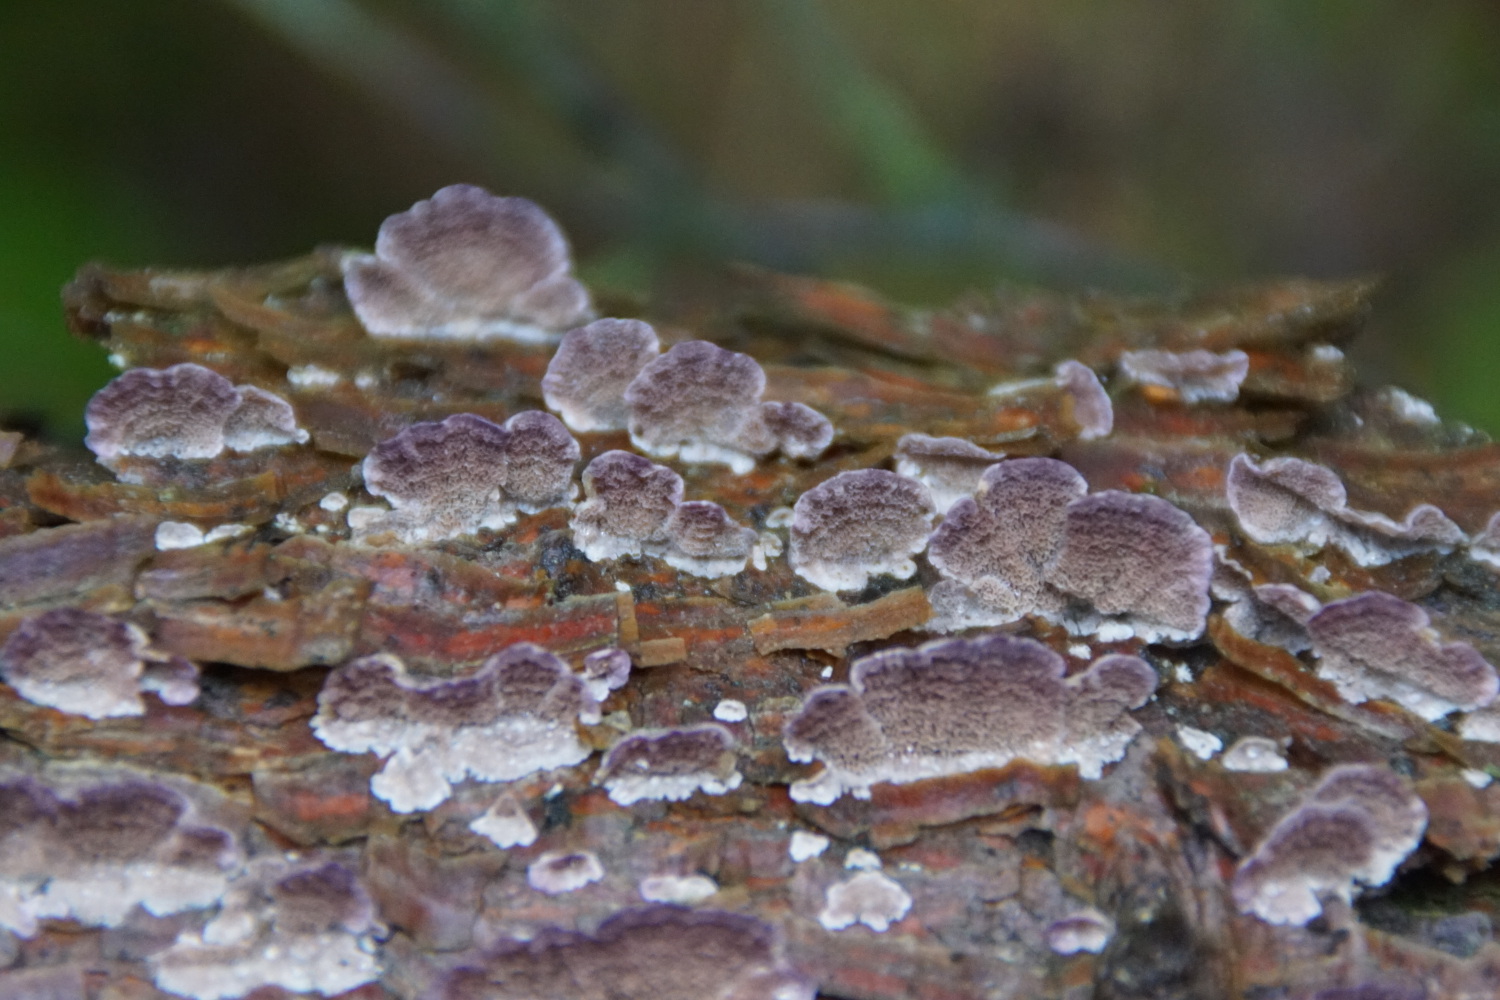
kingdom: Fungi
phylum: Basidiomycota
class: Agaricomycetes
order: Hymenochaetales
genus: Trichaptum
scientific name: Trichaptum abietinum
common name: almindelig violporesvamp
